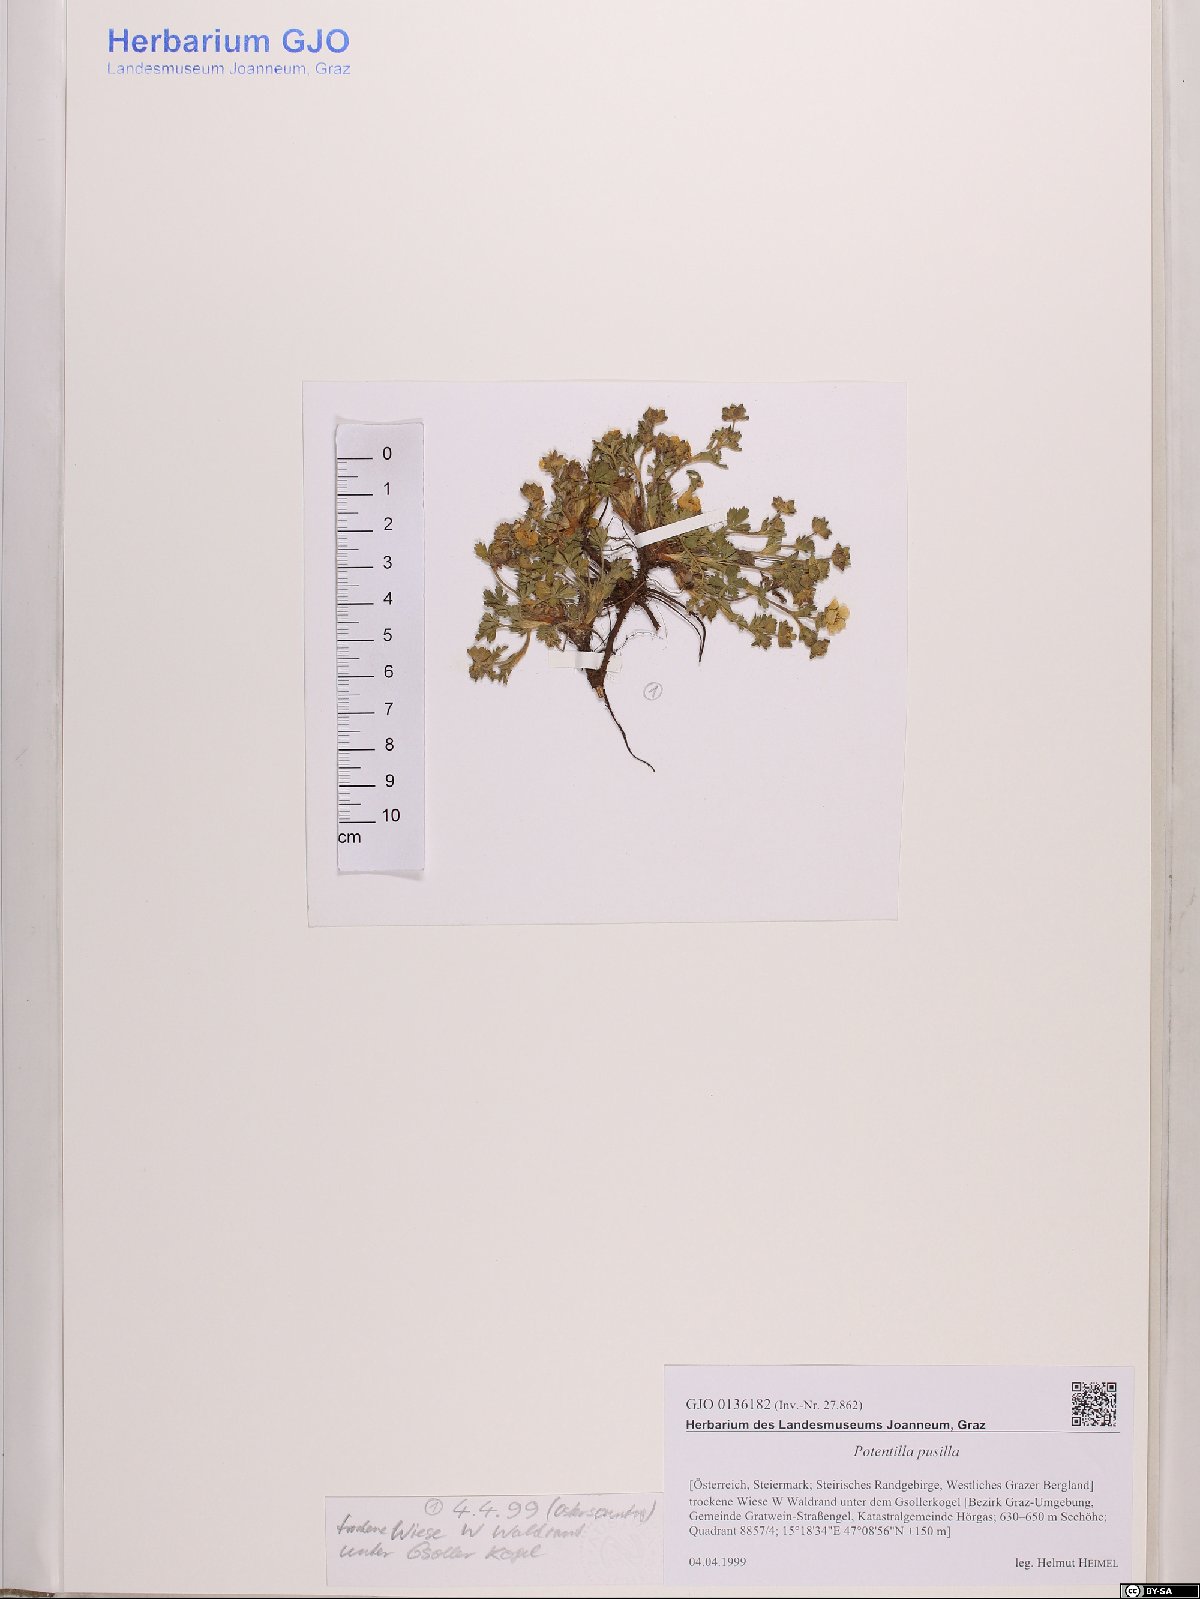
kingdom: Plantae
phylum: Tracheophyta
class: Magnoliopsida
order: Rosales
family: Rosaceae
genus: Potentilla
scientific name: Potentilla pusilla
